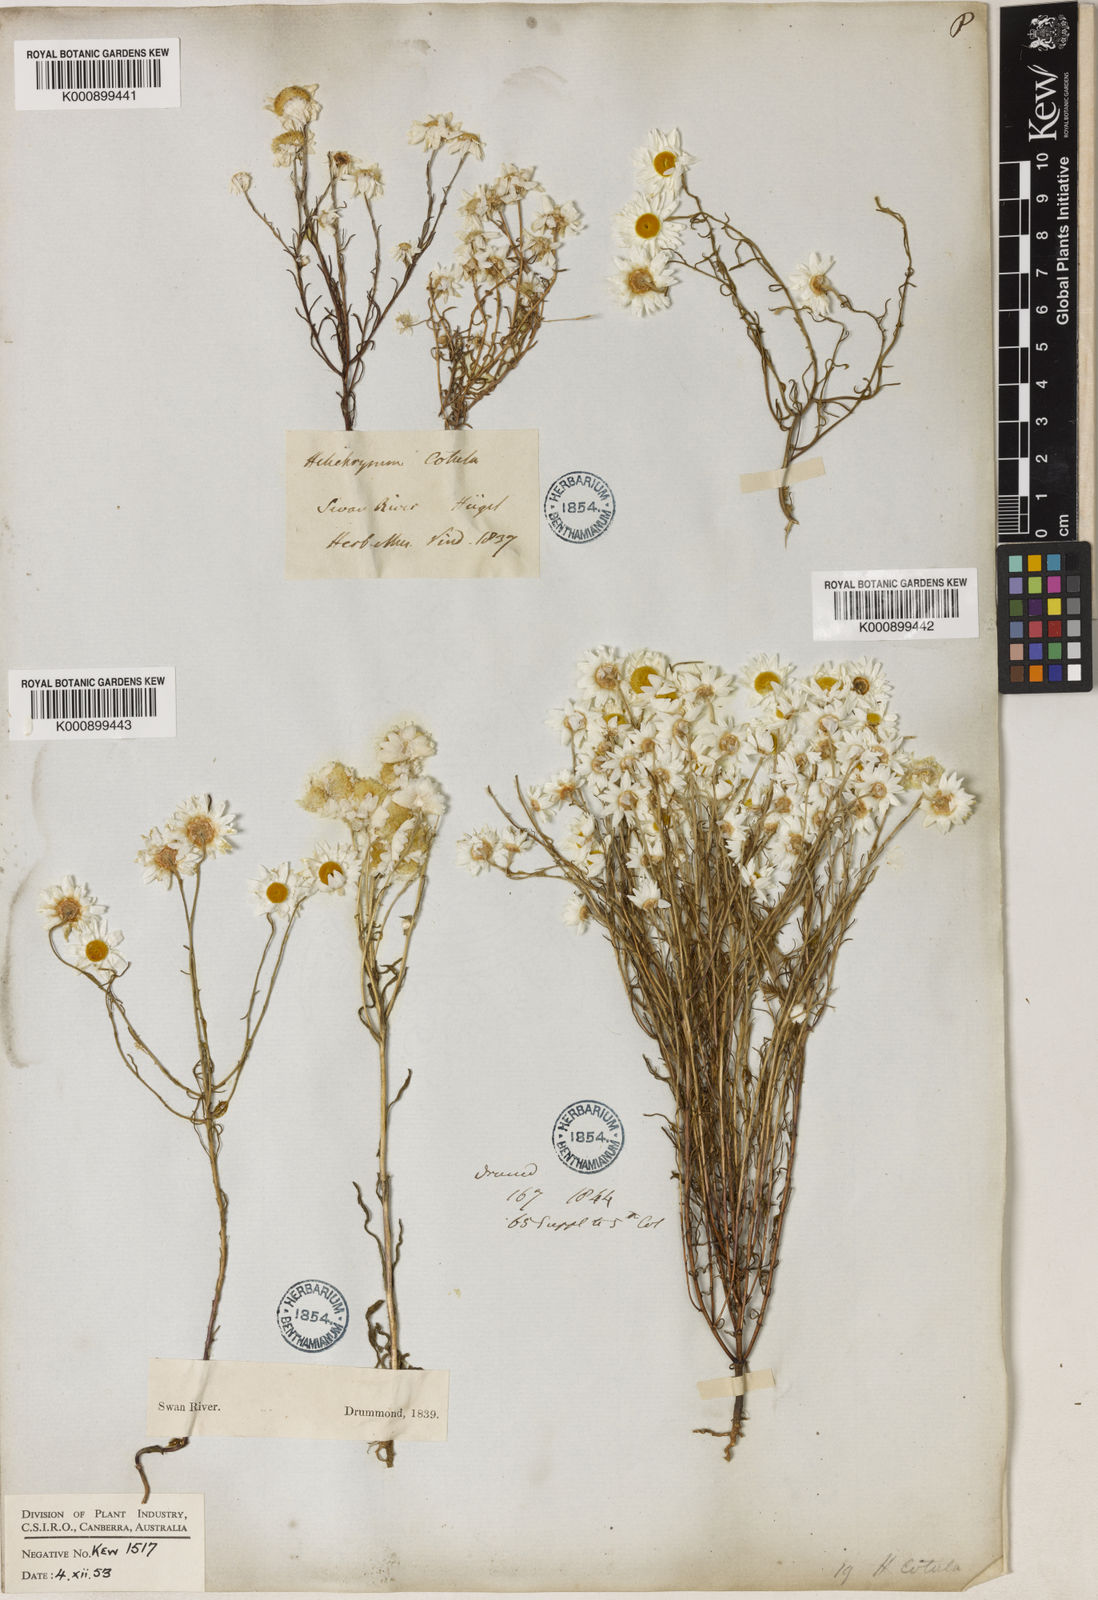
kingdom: Plantae
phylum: Tracheophyta
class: Magnoliopsida
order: Asterales
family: Asteraceae
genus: Hyalosperma
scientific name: Hyalosperma cotula
